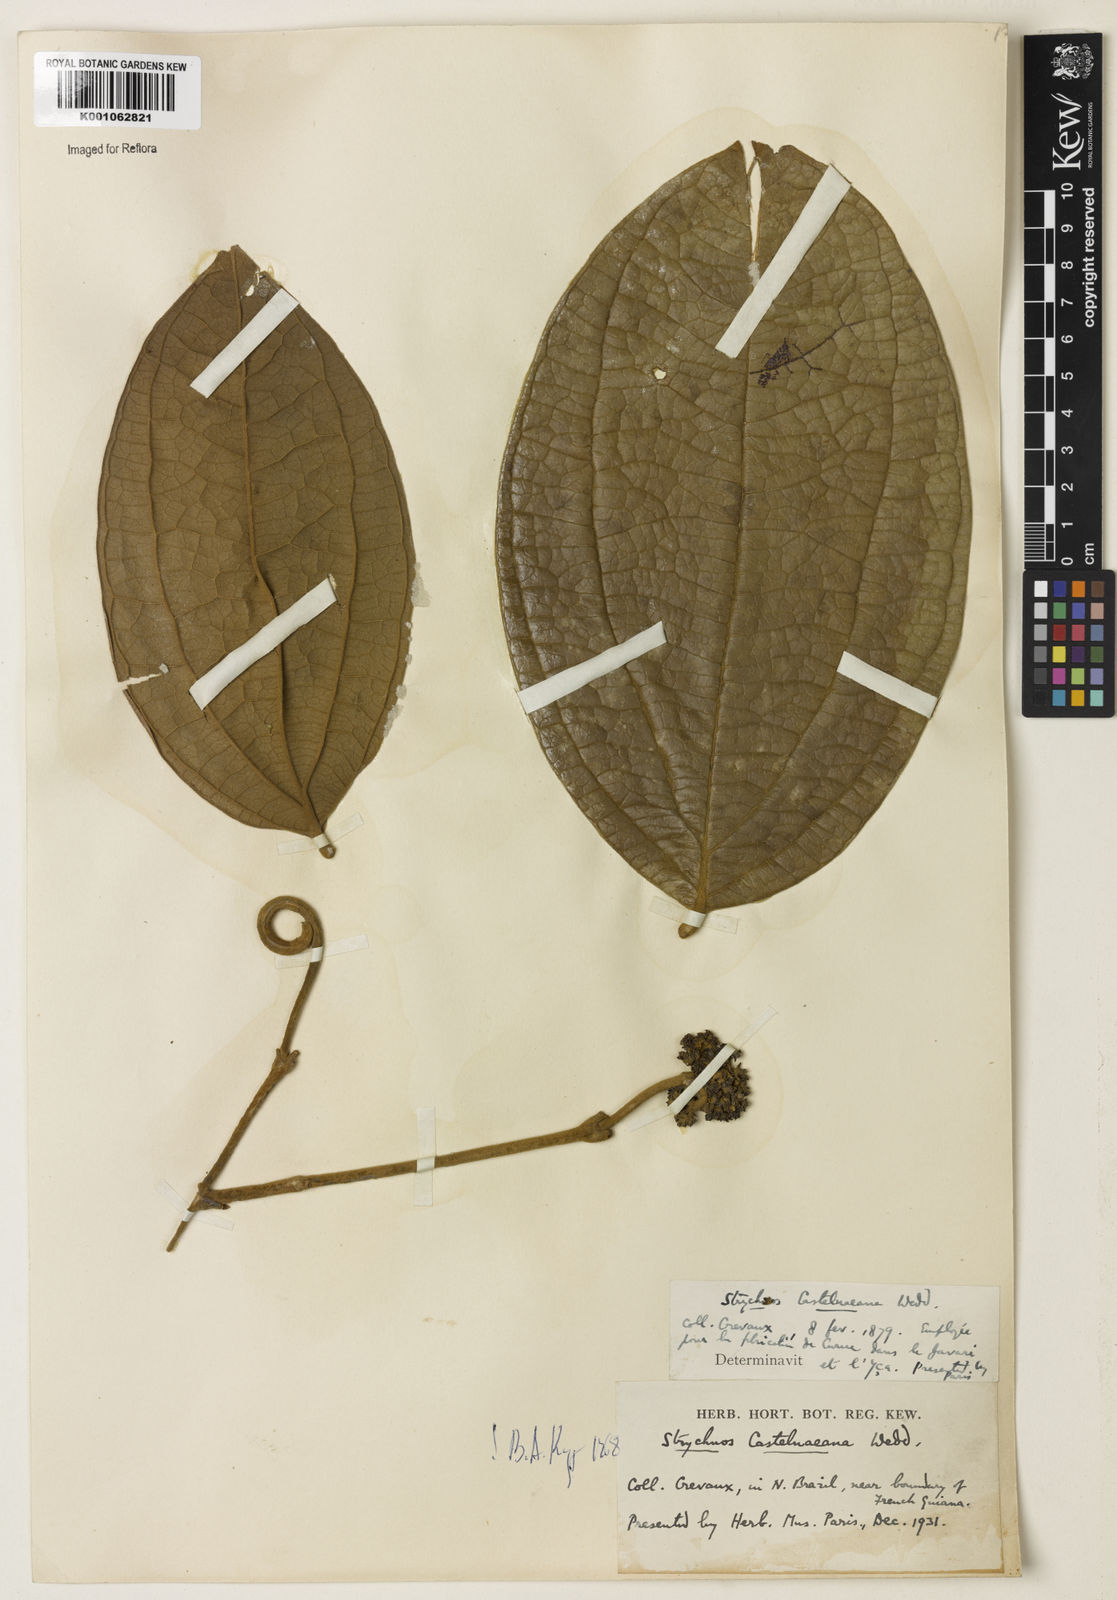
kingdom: Plantae
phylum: Tracheophyta
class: Magnoliopsida
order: Gentianales
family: Loganiaceae
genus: Strychnos
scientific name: Strychnos
